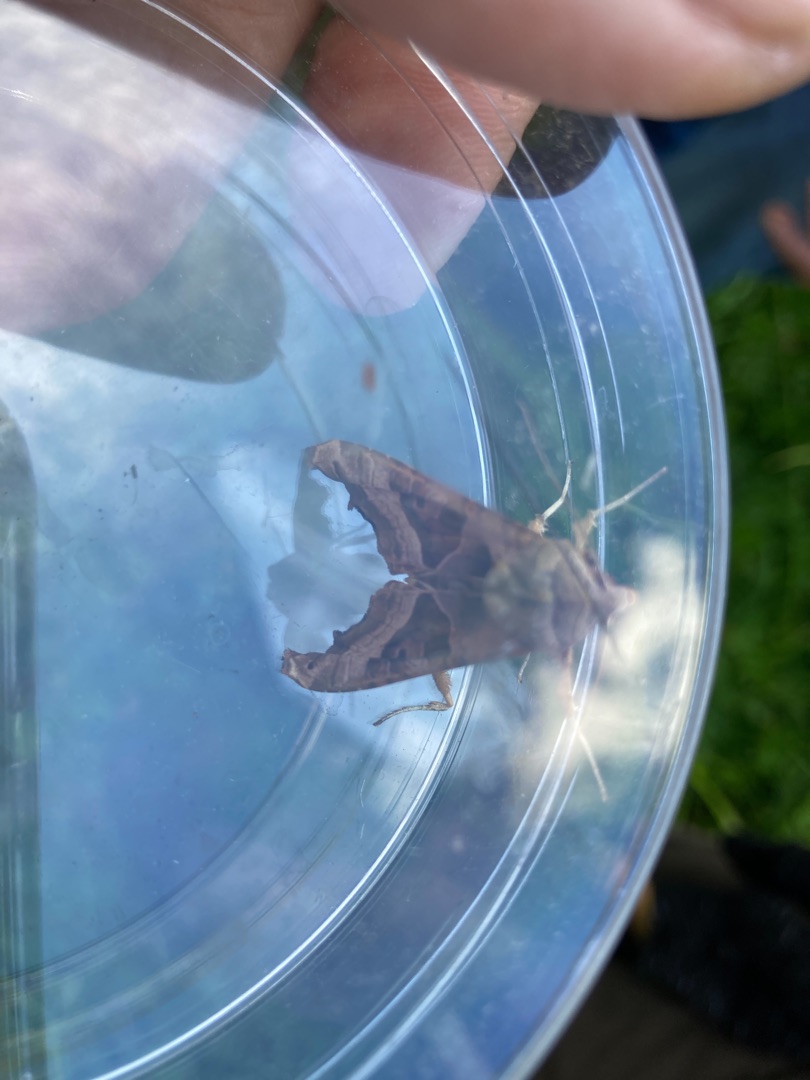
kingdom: Animalia
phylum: Arthropoda
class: Insecta
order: Lepidoptera
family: Noctuidae
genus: Phlogophora
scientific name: Phlogophora meticulosa
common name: Agatugle
